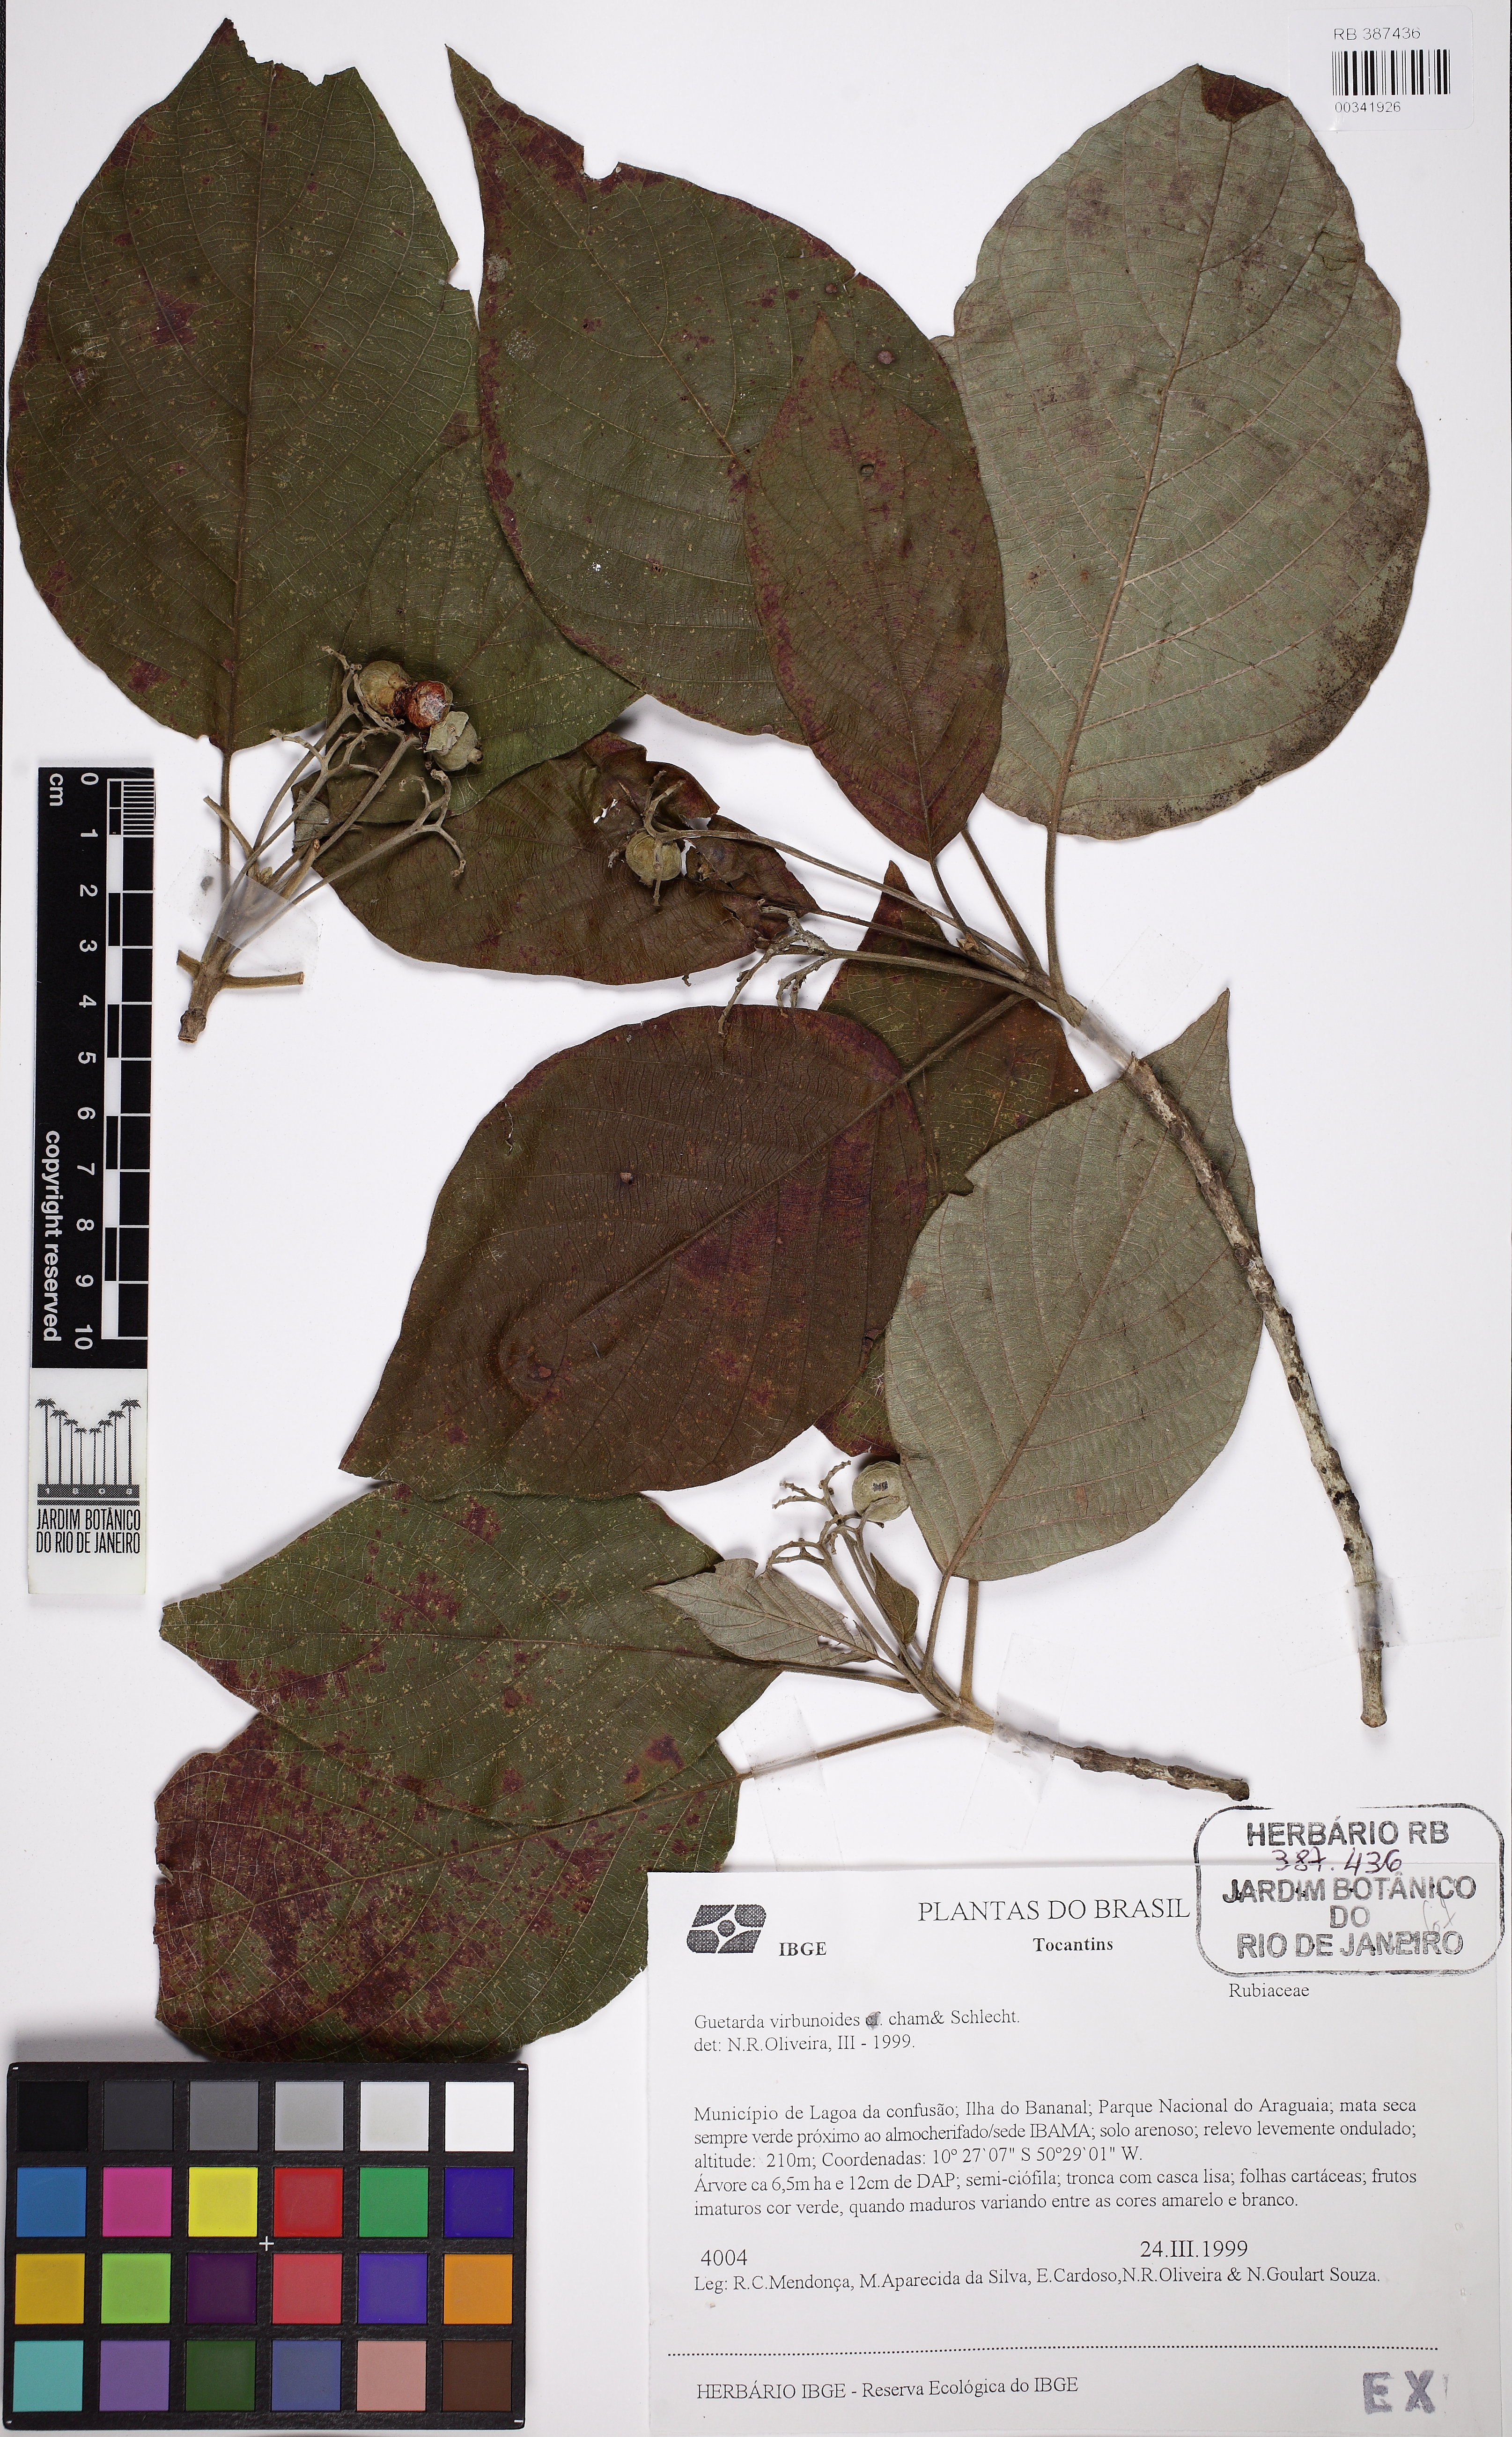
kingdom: Plantae
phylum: Tracheophyta
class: Magnoliopsida
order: Gentianales
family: Rubiaceae
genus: Guettarda
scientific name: Guettarda viburnoides
